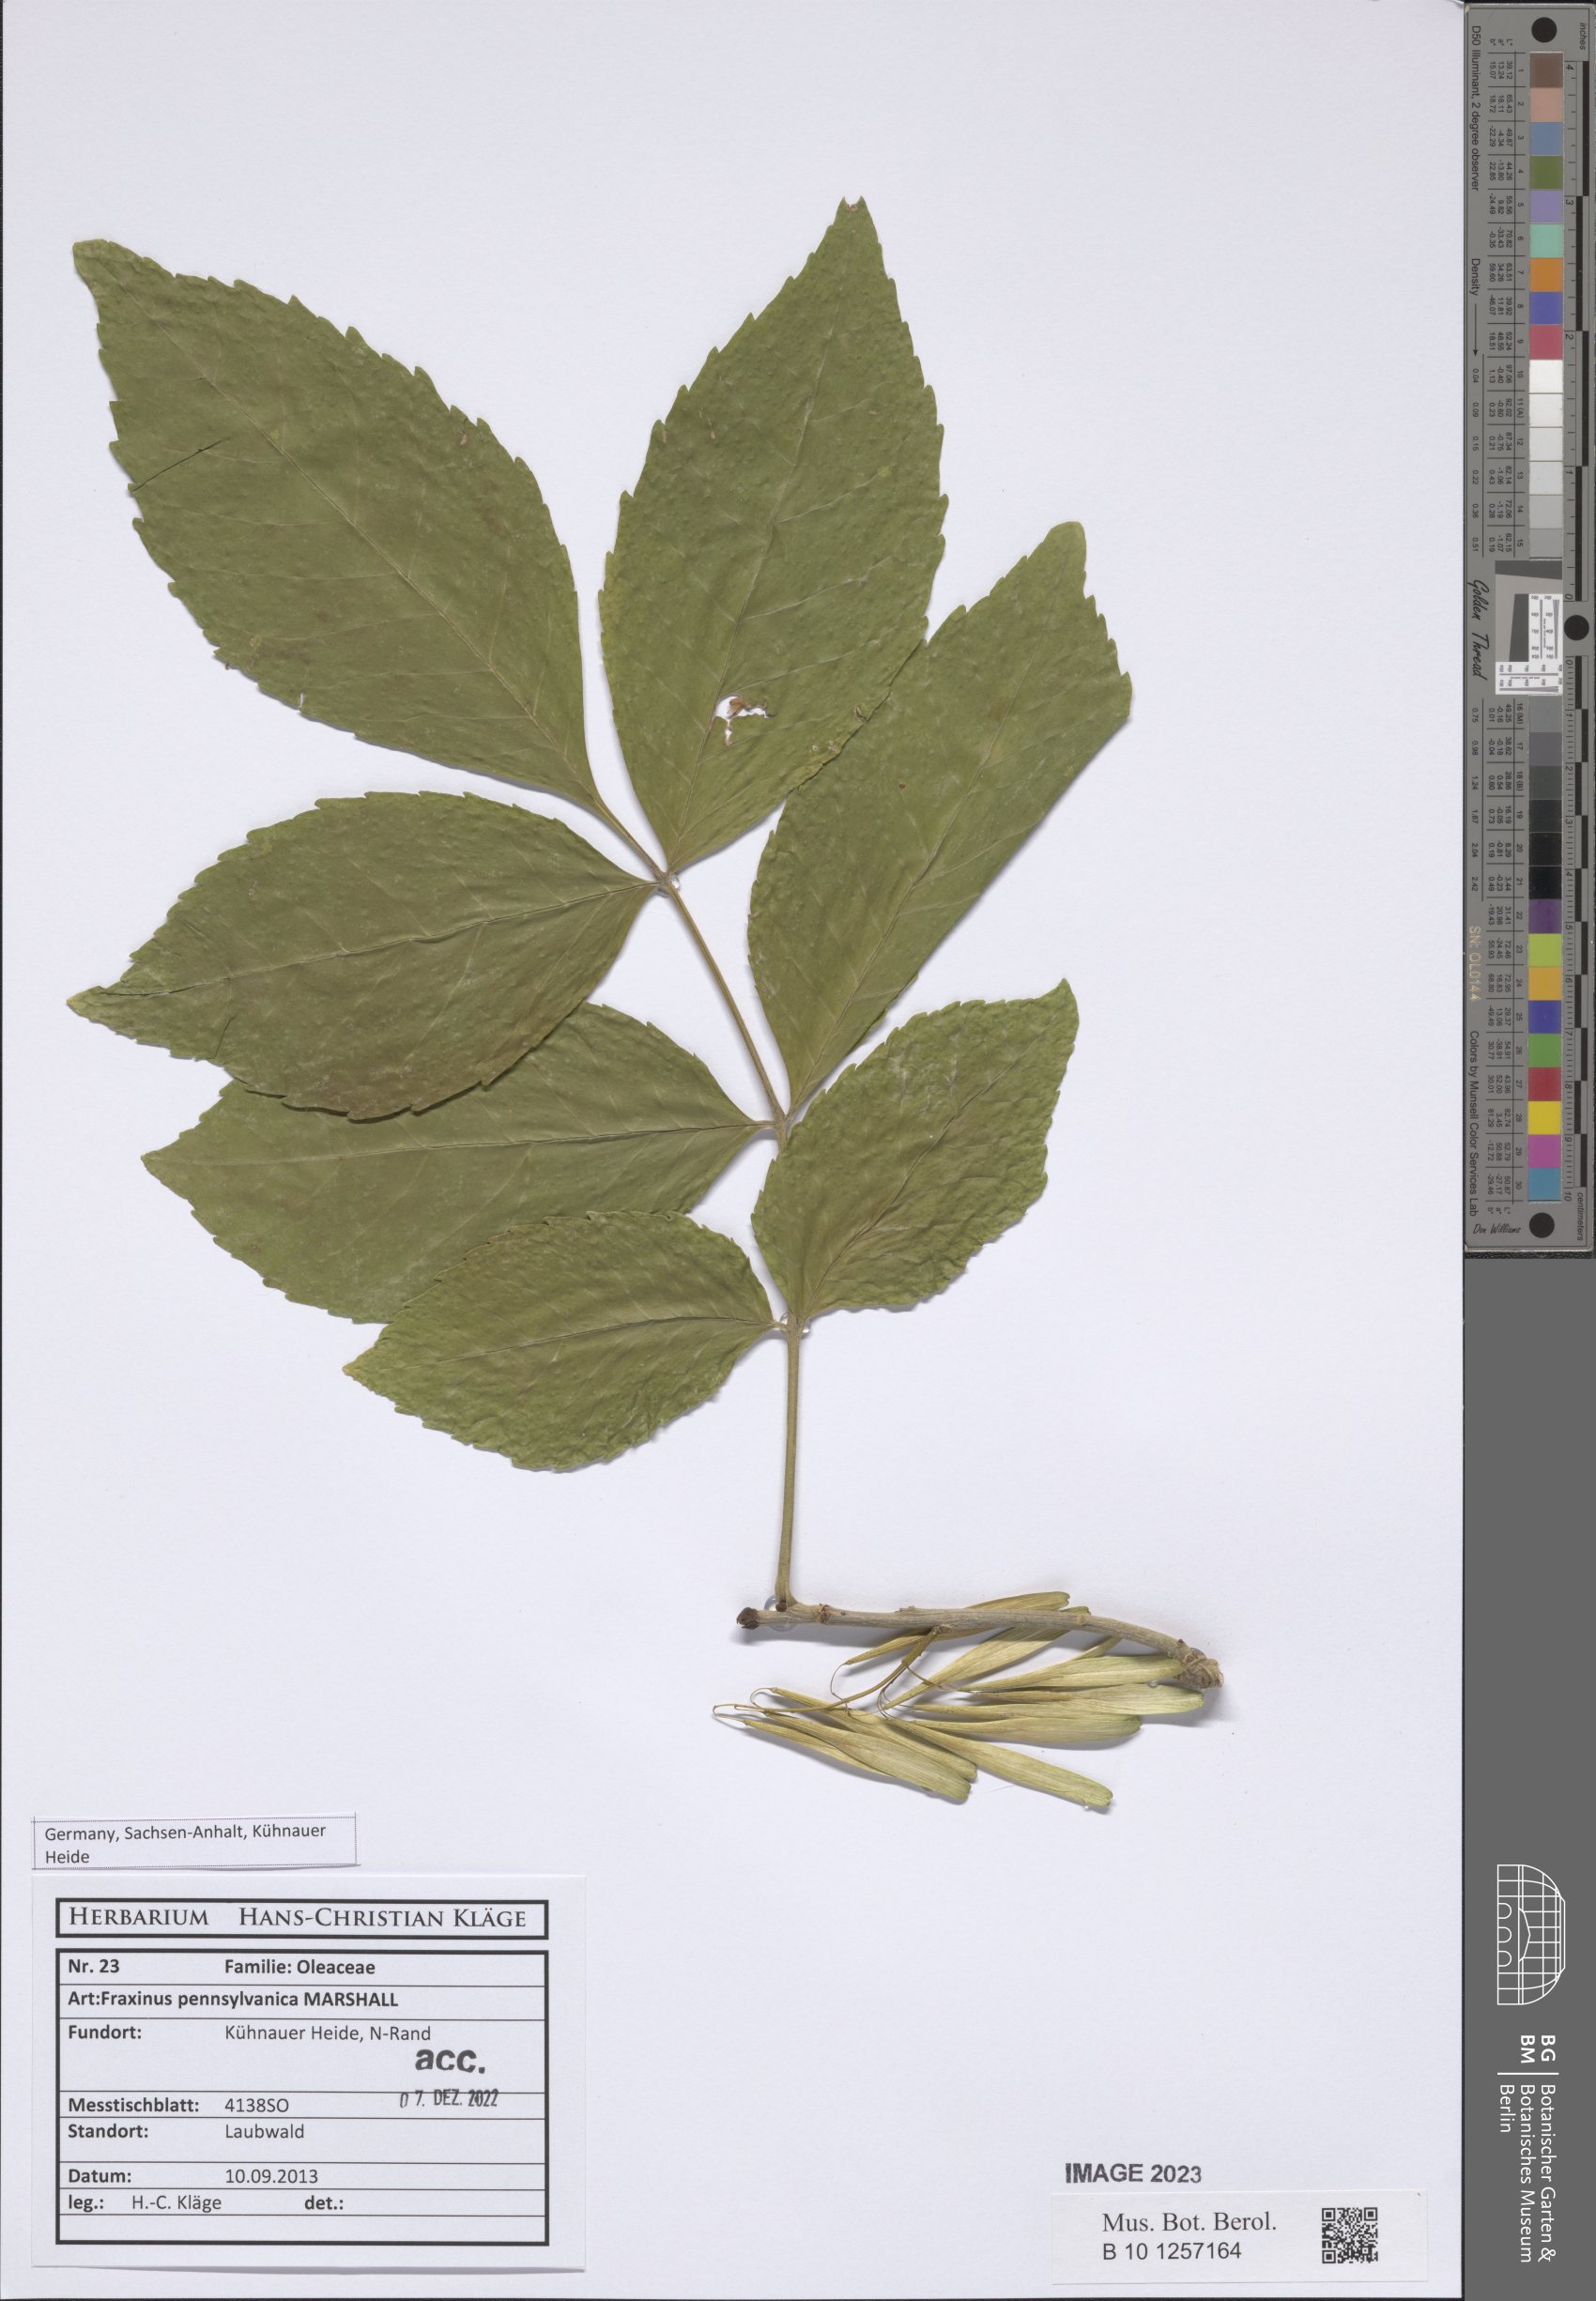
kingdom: Plantae
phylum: Tracheophyta
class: Magnoliopsida
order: Lamiales
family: Oleaceae
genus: Fraxinus
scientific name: Fraxinus pennsylvanica
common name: Green ash
